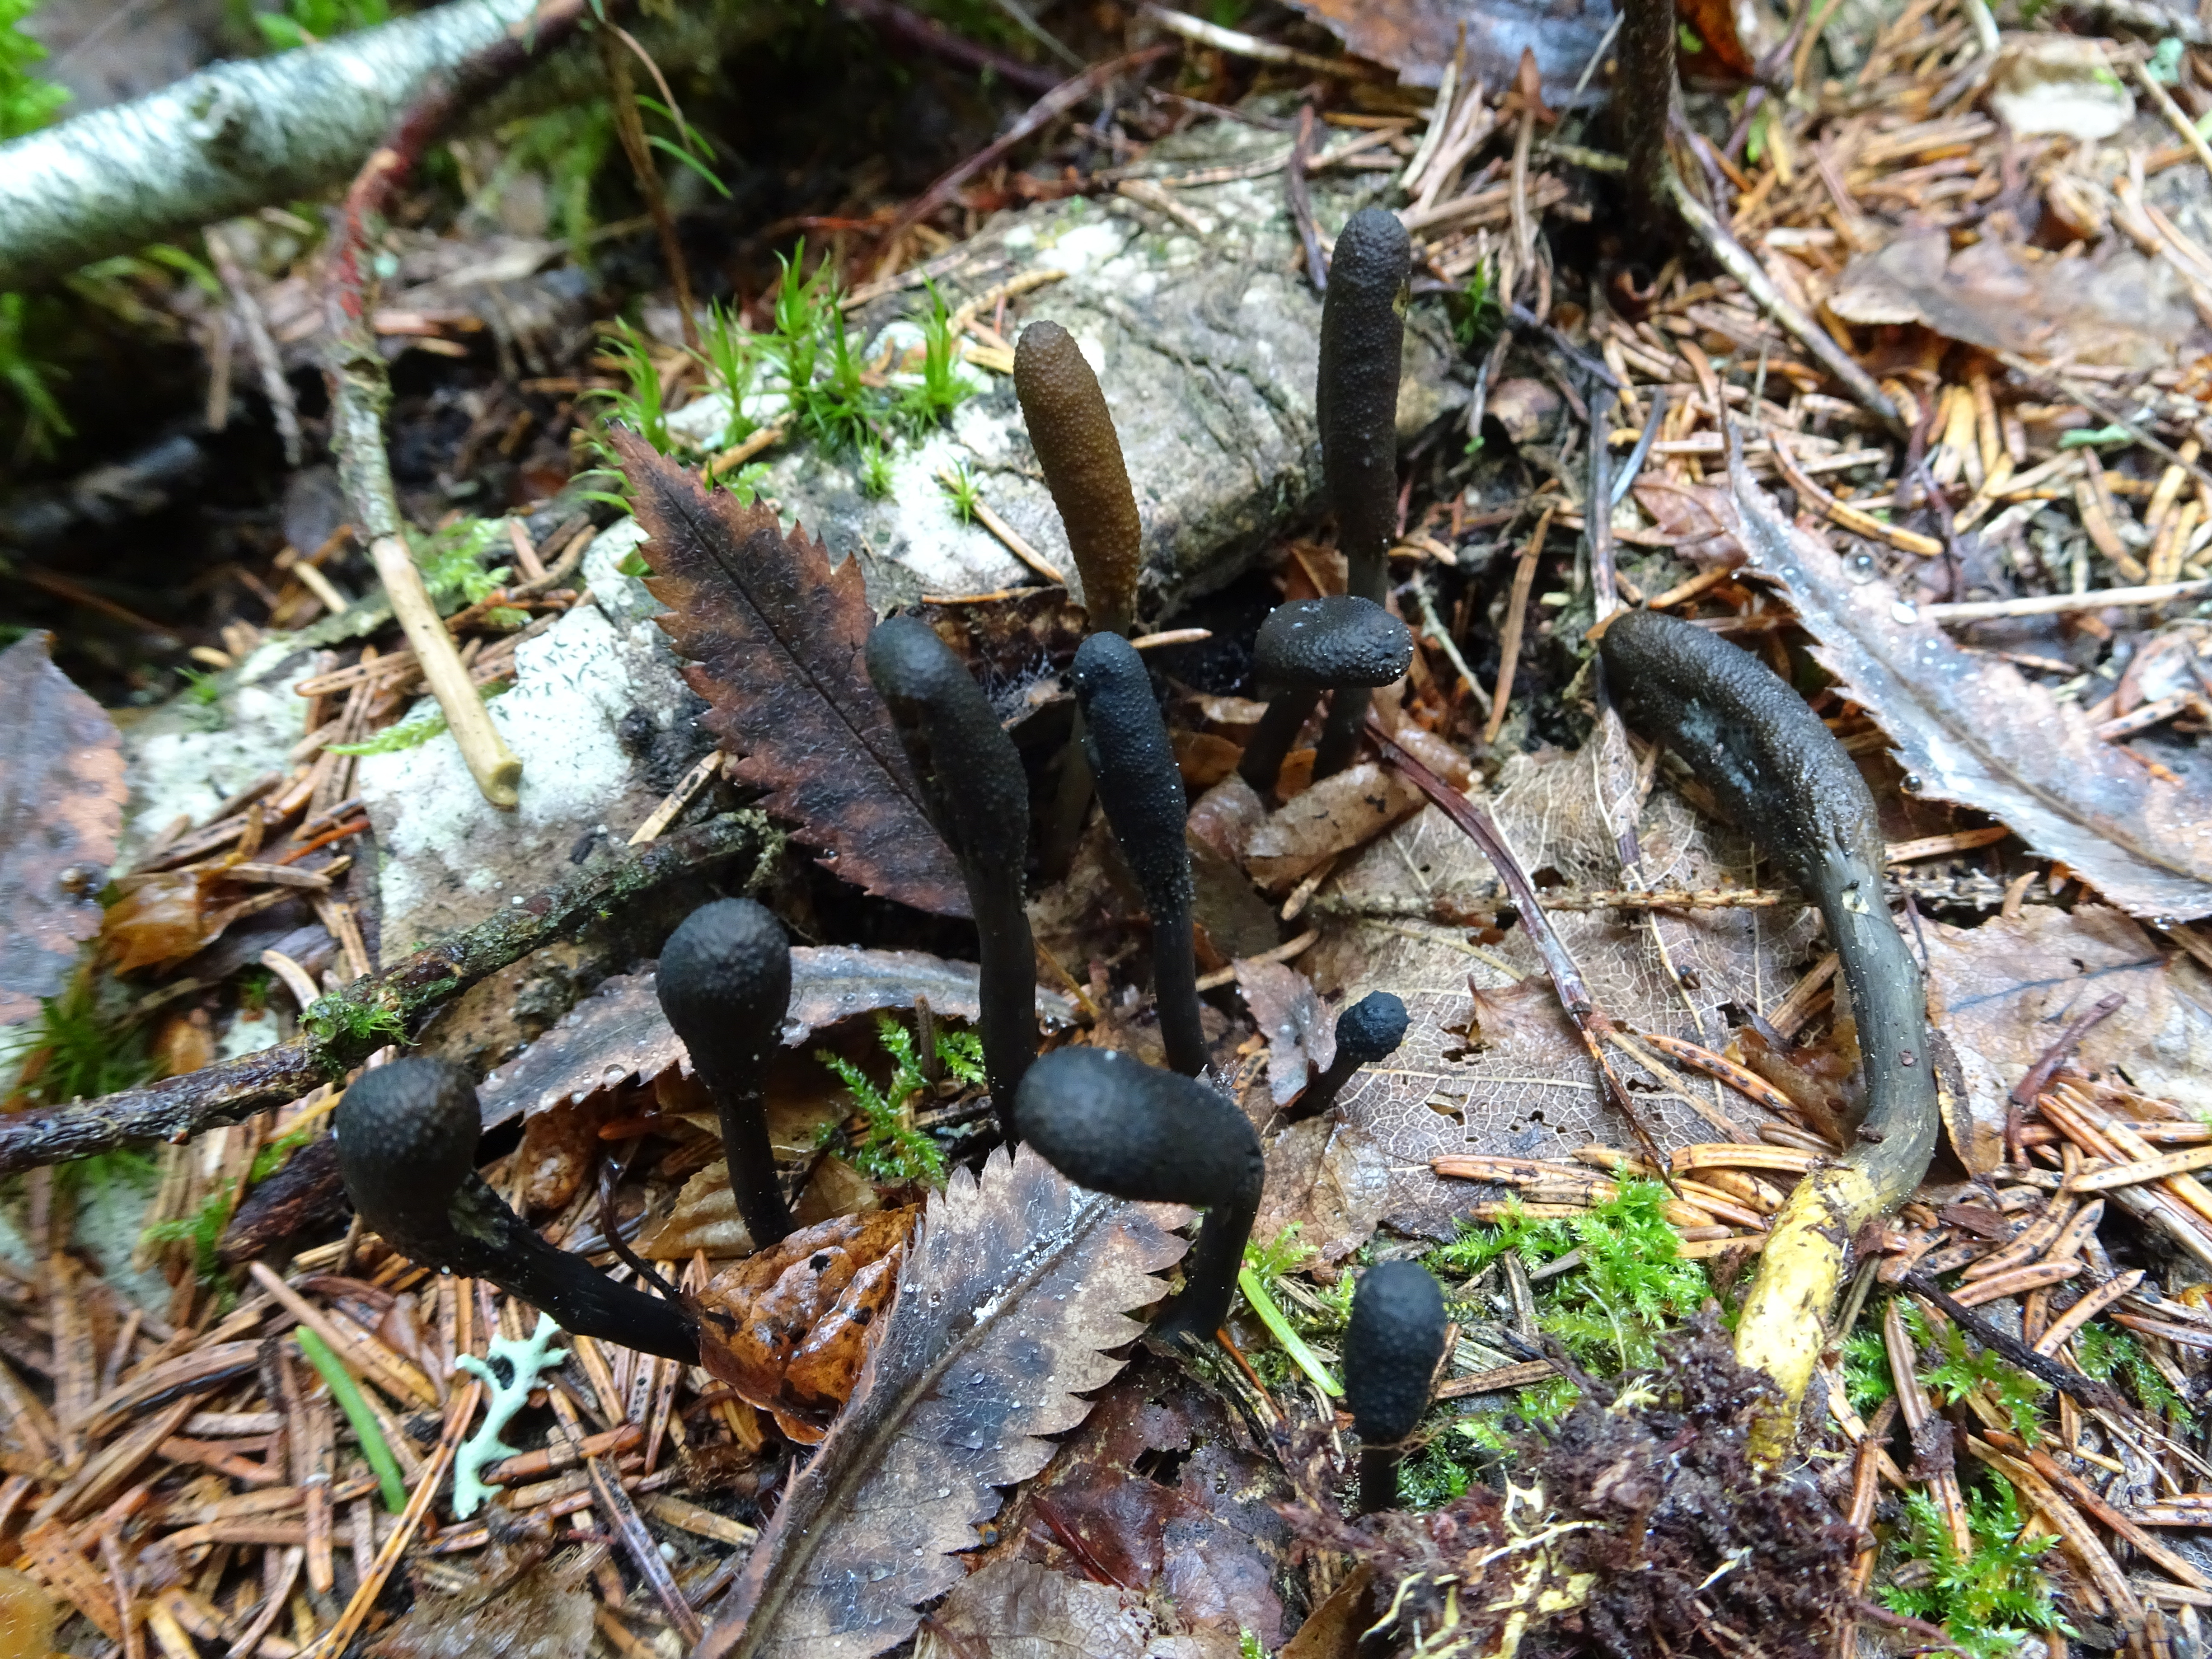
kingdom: Fungi
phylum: Ascomycota
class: Sordariomycetes
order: Hypocreales
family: Ophiocordycipitaceae
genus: Tolypocladium
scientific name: Tolypocladium ophioglossoides
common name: Snaketongue truffleclub
